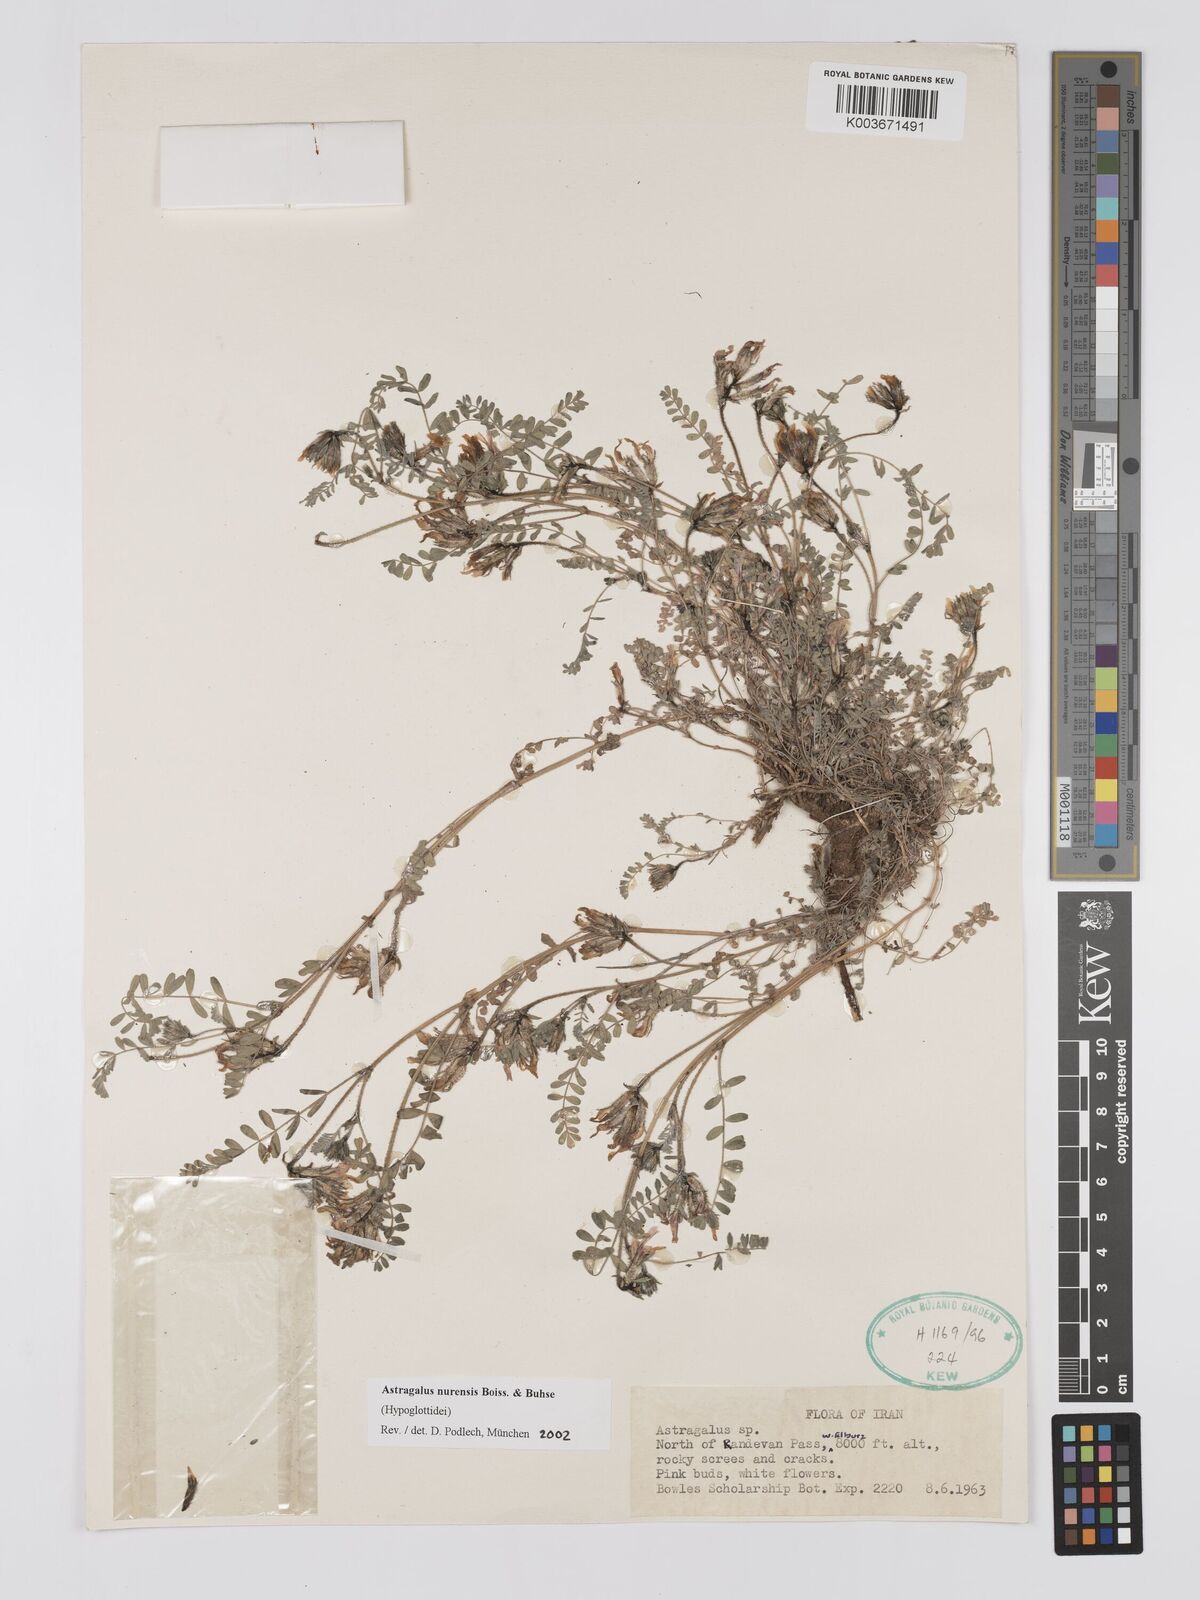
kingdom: Plantae
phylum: Tracheophyta
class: Magnoliopsida
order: Fabales
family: Fabaceae
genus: Astragalus
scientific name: Astragalus nurensis
